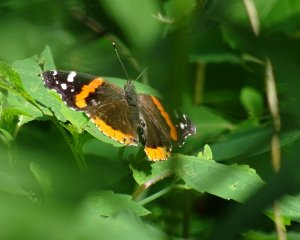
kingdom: Animalia
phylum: Arthropoda
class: Insecta
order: Lepidoptera
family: Nymphalidae
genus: Vanessa
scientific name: Vanessa atalanta
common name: Red Admiral
